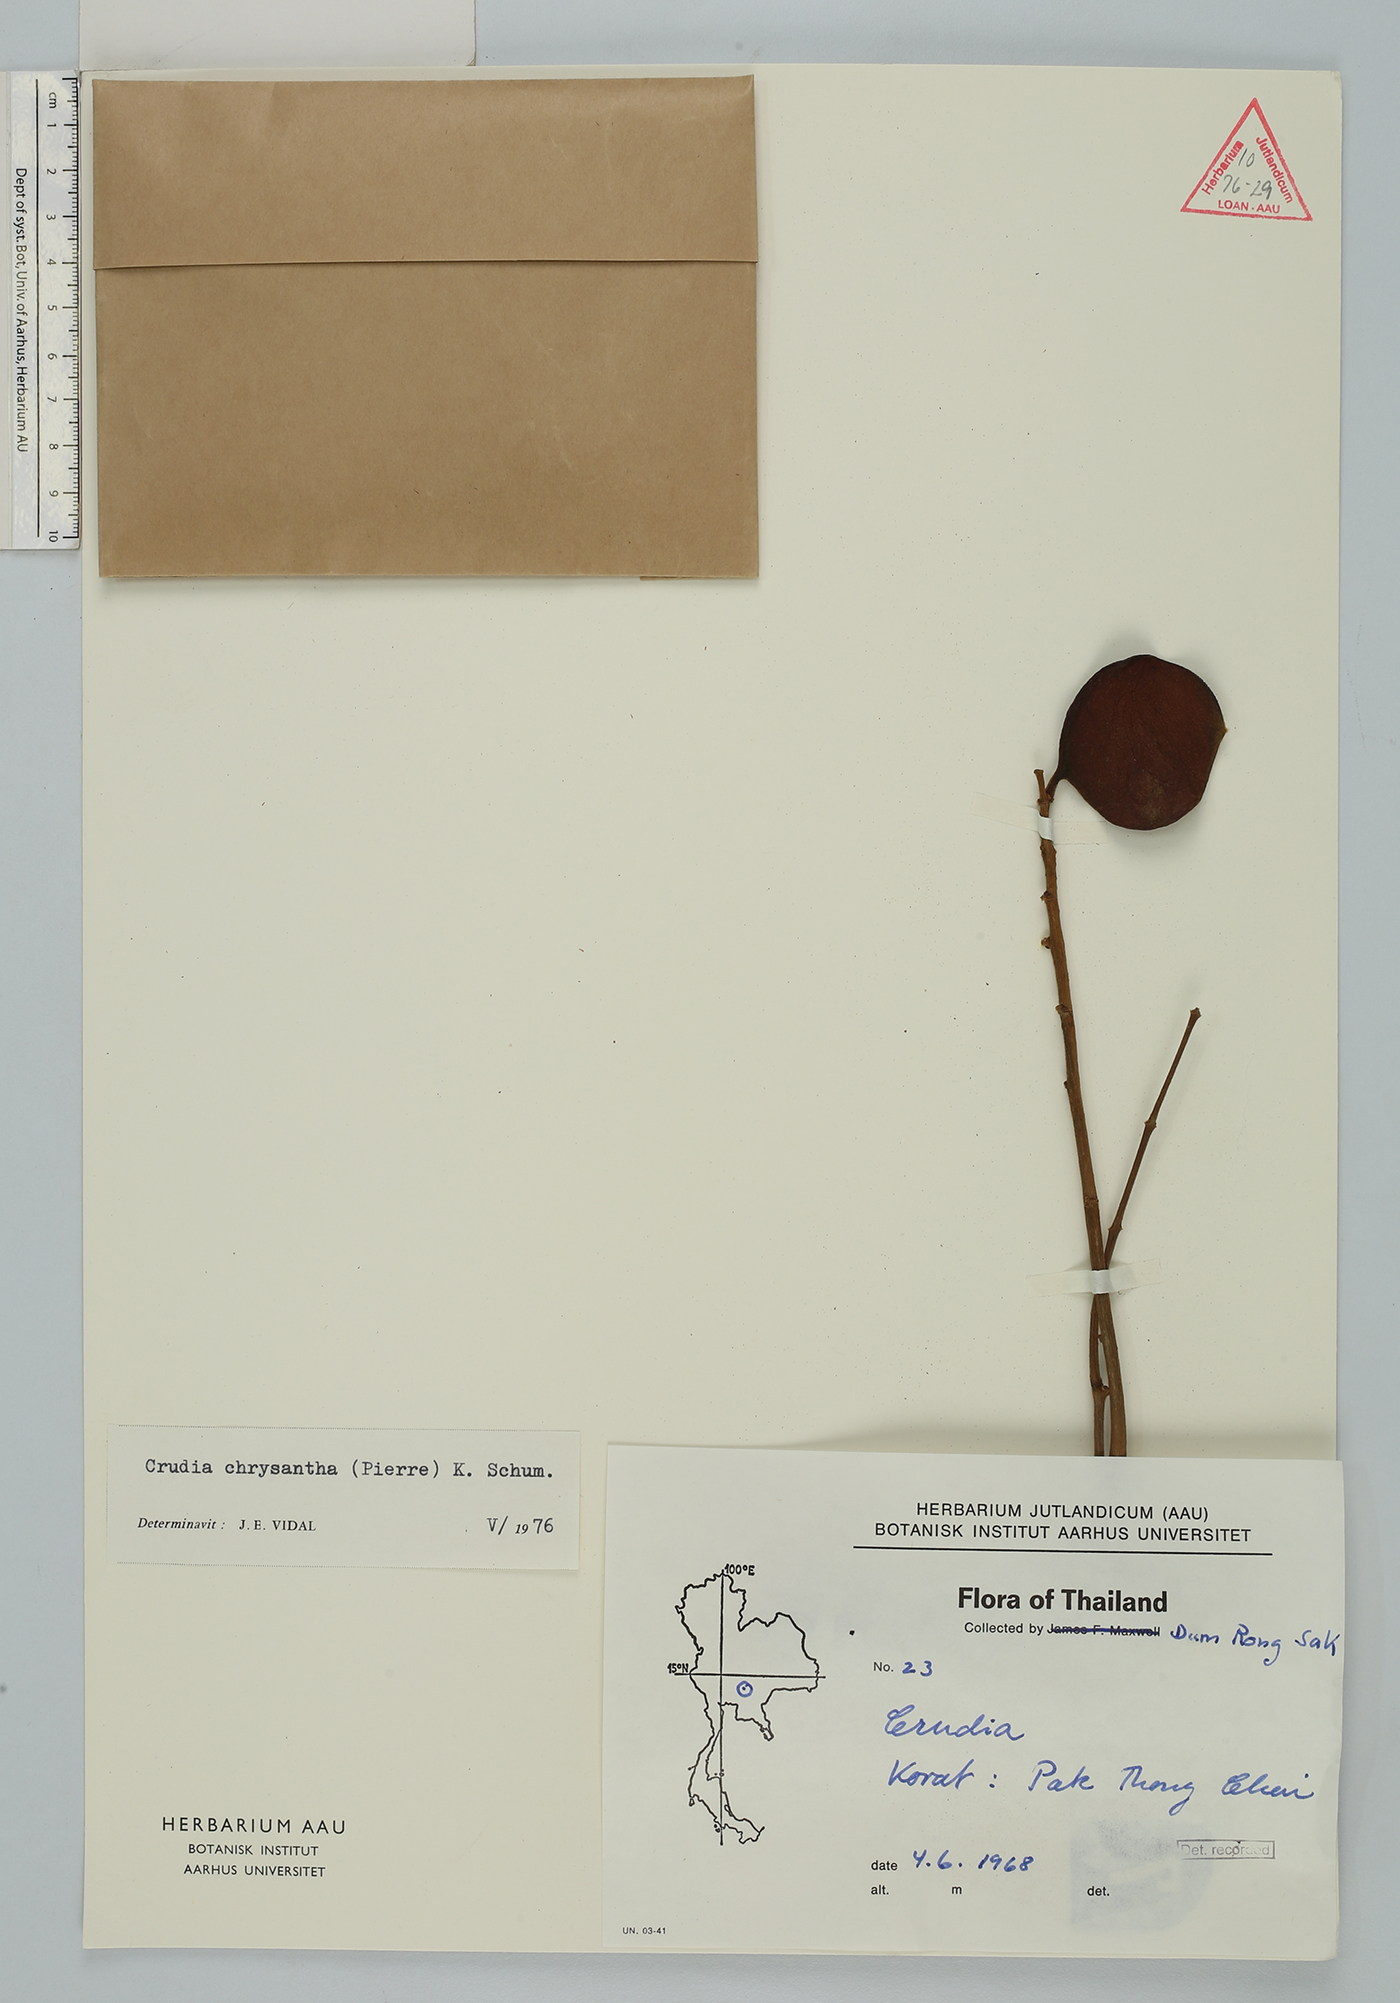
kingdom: Plantae
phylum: Tracheophyta
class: Magnoliopsida
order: Fabales
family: Fabaceae
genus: Crudia
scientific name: Crudia zeylanica
